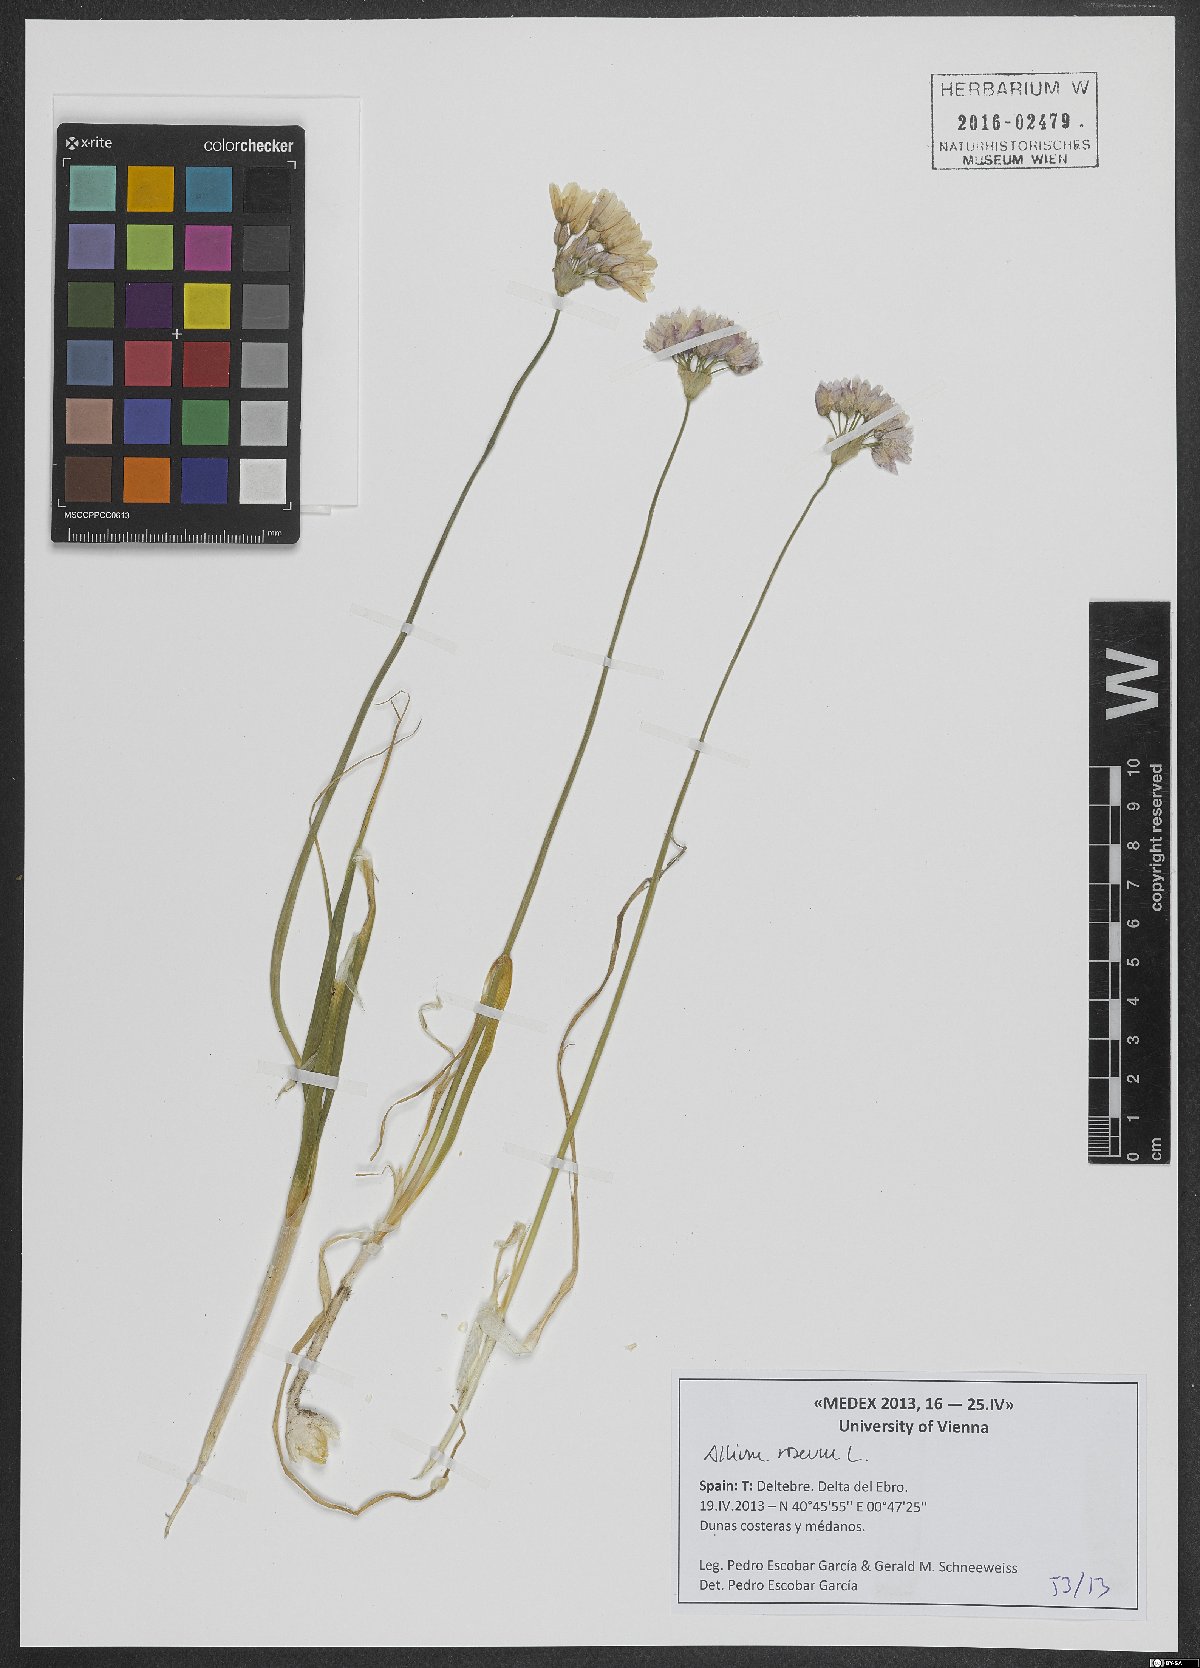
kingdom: Plantae
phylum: Tracheophyta
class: Liliopsida
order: Asparagales
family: Amaryllidaceae
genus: Allium
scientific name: Allium roseum
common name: Rosy garlic
